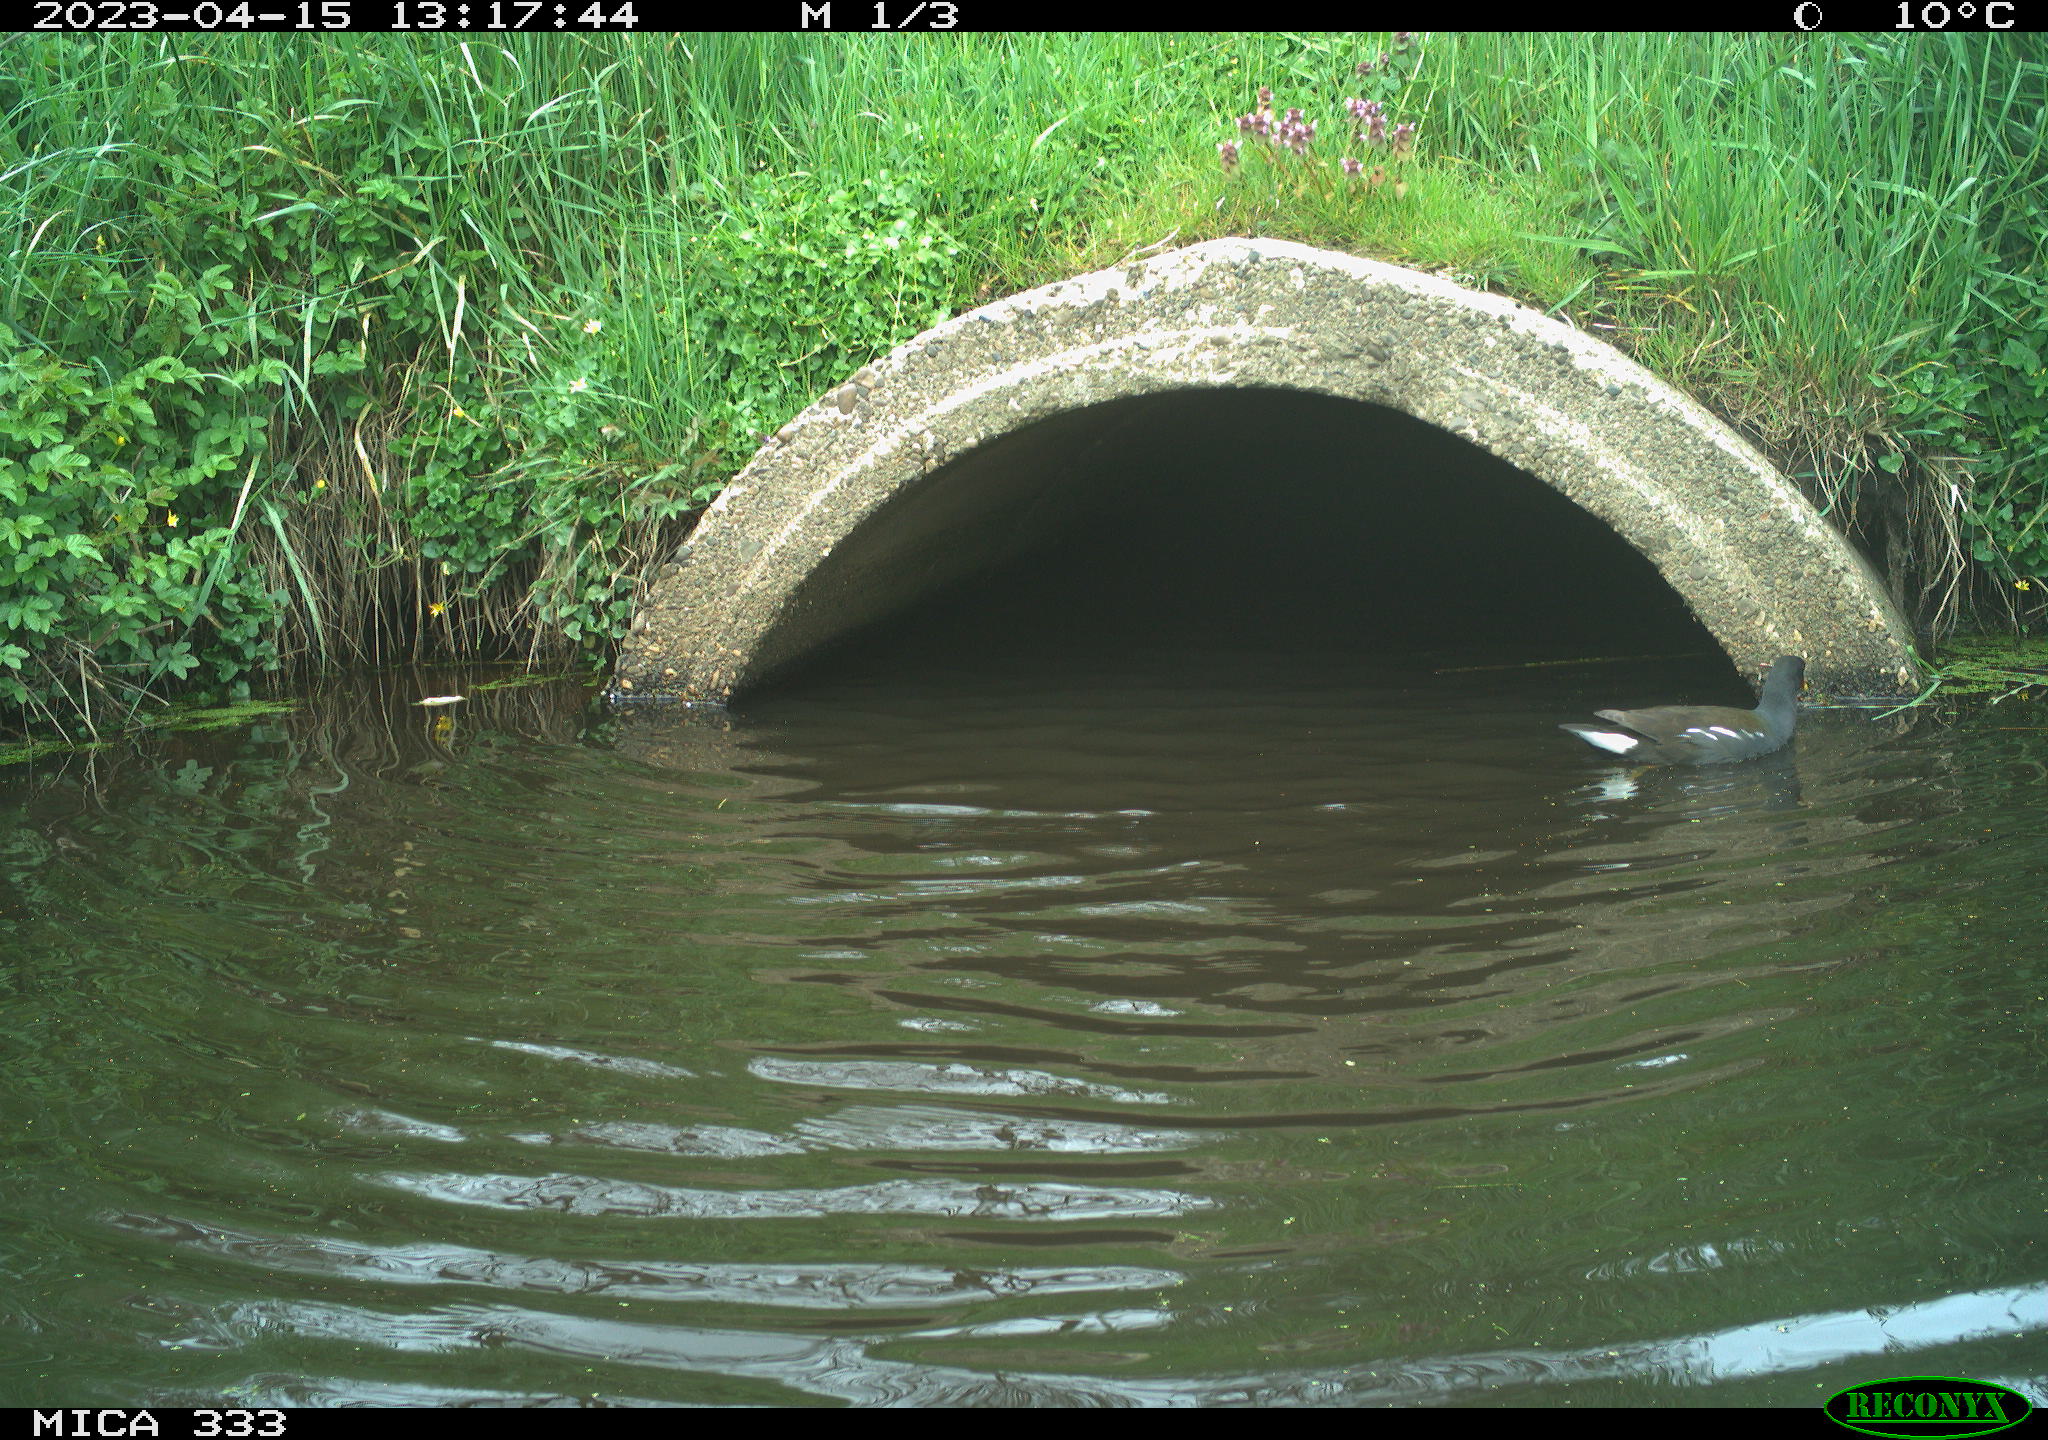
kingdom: Animalia
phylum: Chordata
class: Aves
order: Gruiformes
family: Rallidae
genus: Gallinula
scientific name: Gallinula chloropus
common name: Common moorhen
